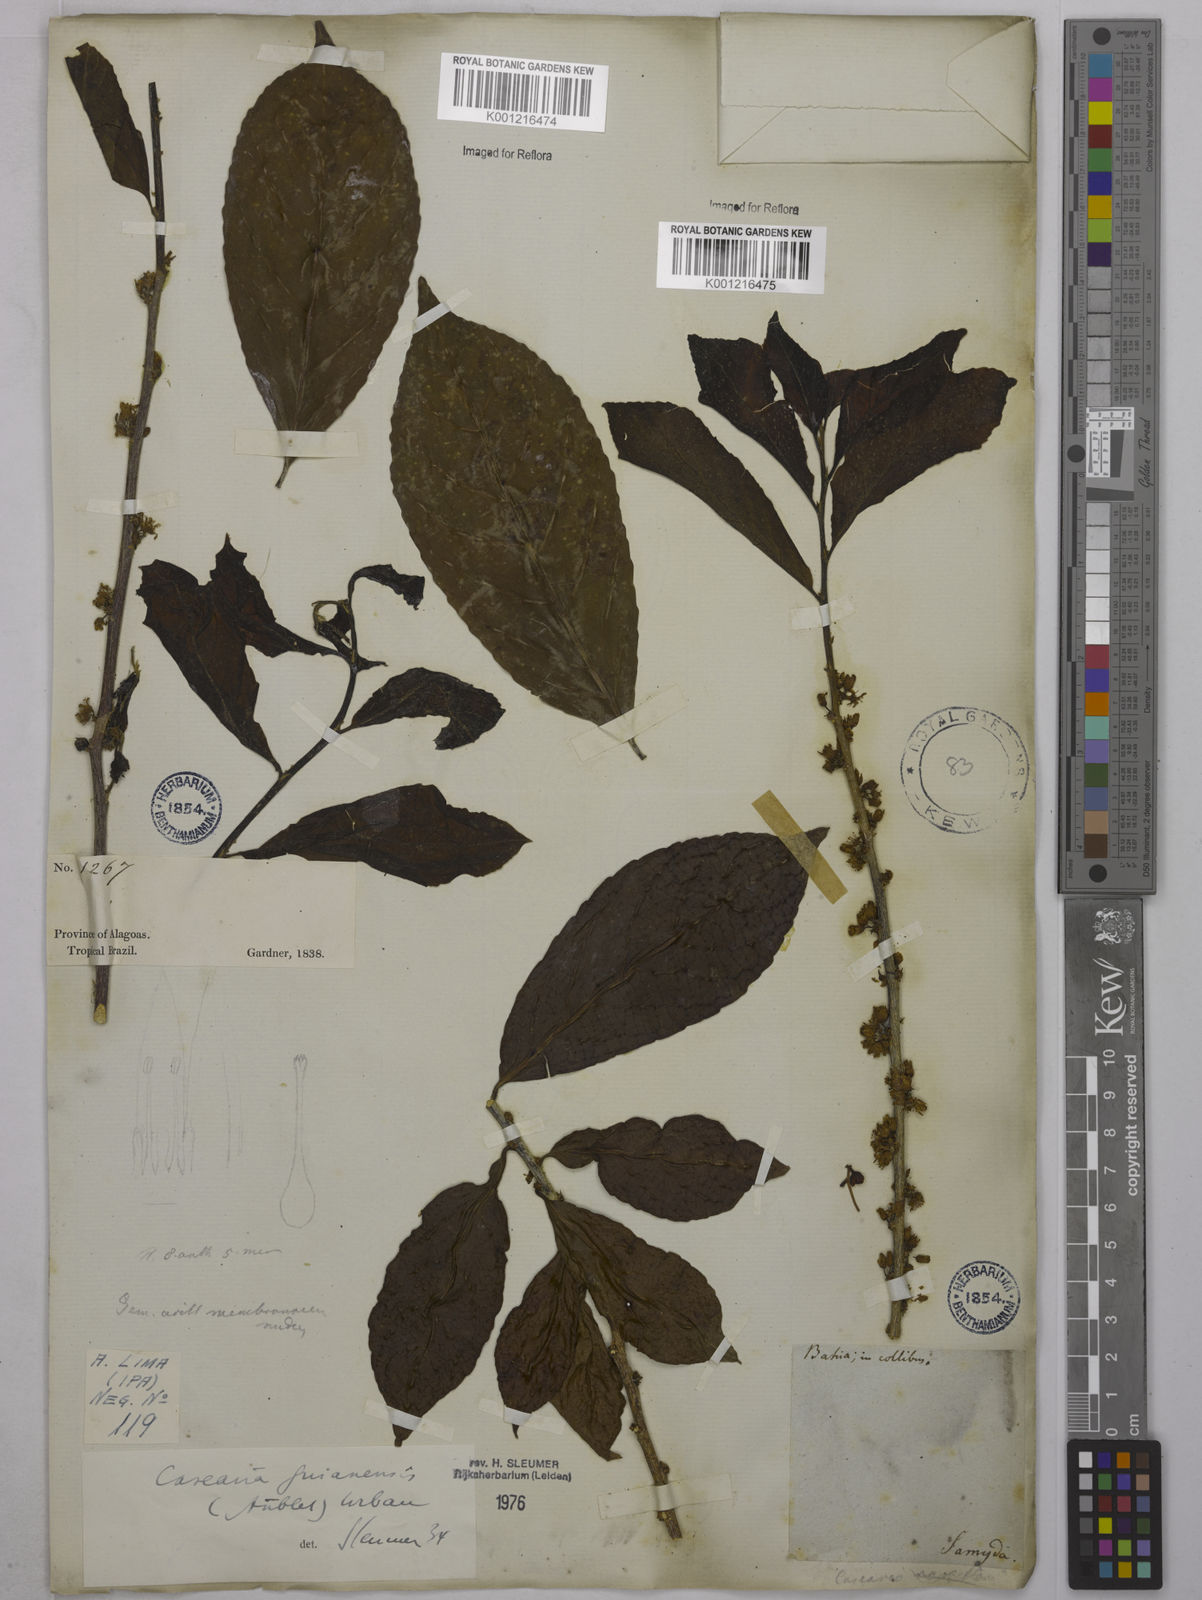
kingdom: Plantae
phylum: Tracheophyta
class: Magnoliopsida
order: Malpighiales
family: Salicaceae
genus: Casearia
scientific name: Casearia guianensis
